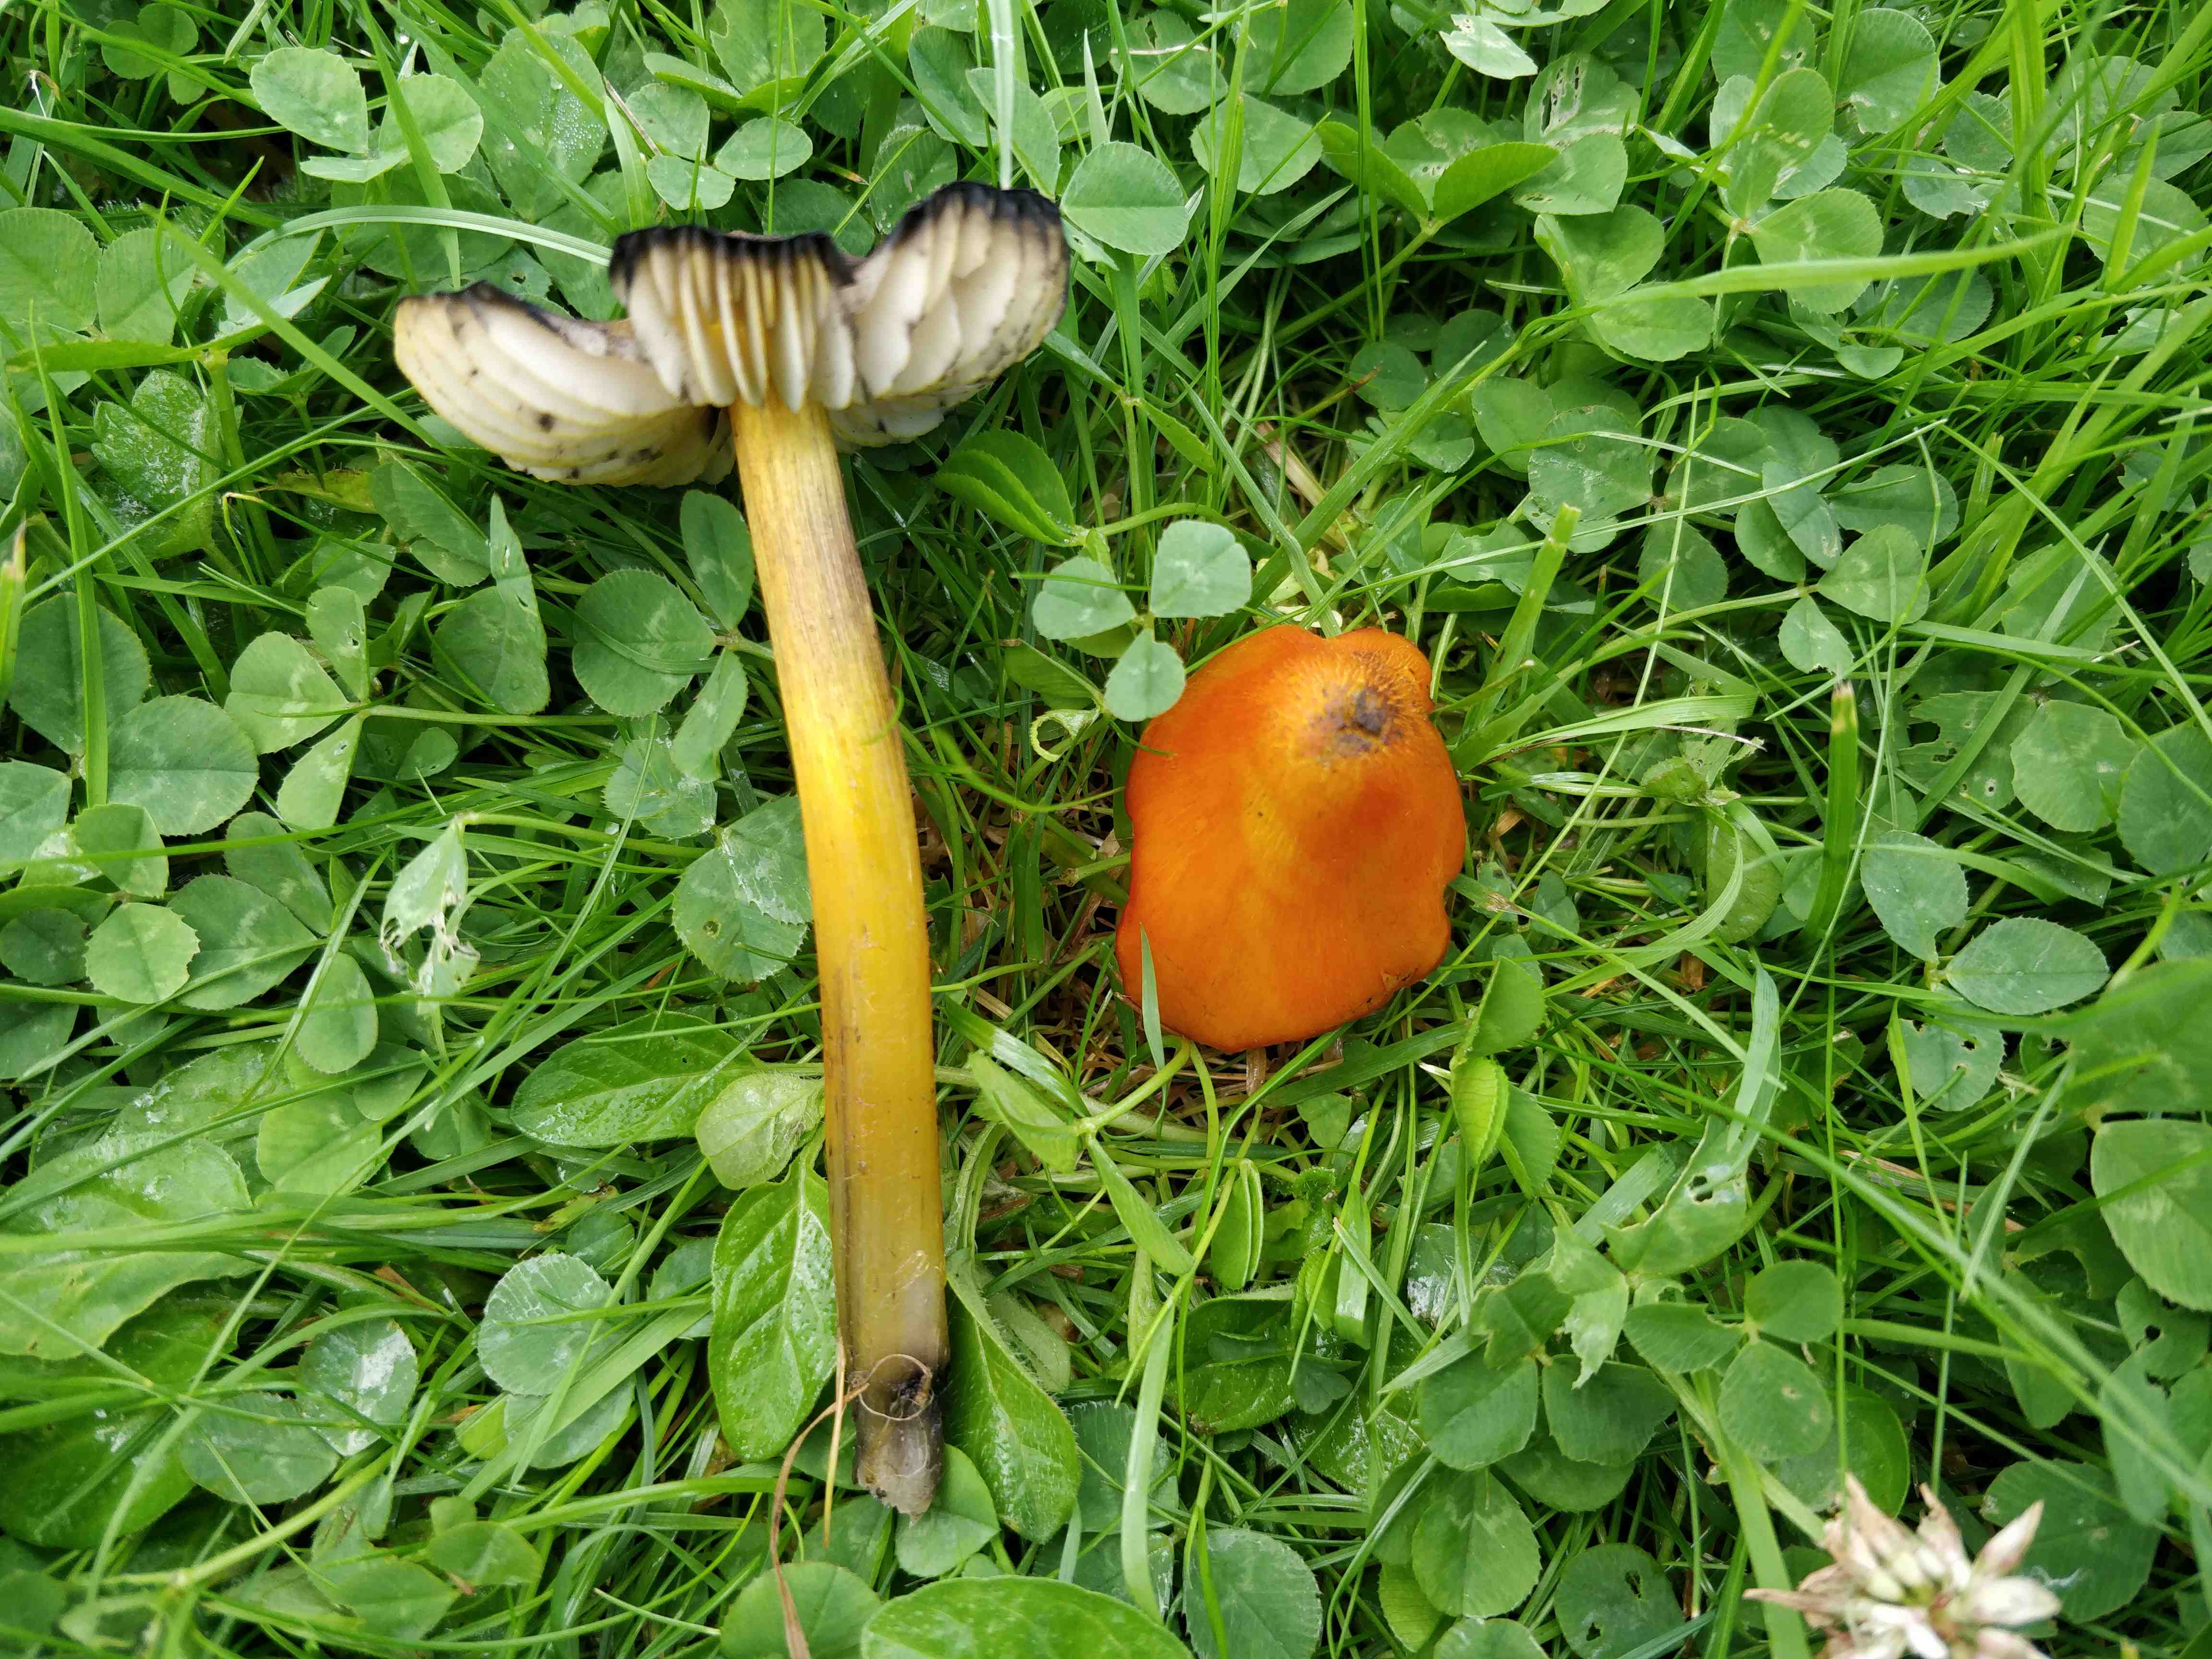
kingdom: Fungi
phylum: Basidiomycota
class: Agaricomycetes
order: Agaricales
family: Hygrophoraceae
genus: Hygrocybe
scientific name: Hygrocybe conica
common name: kegle-vokshat
